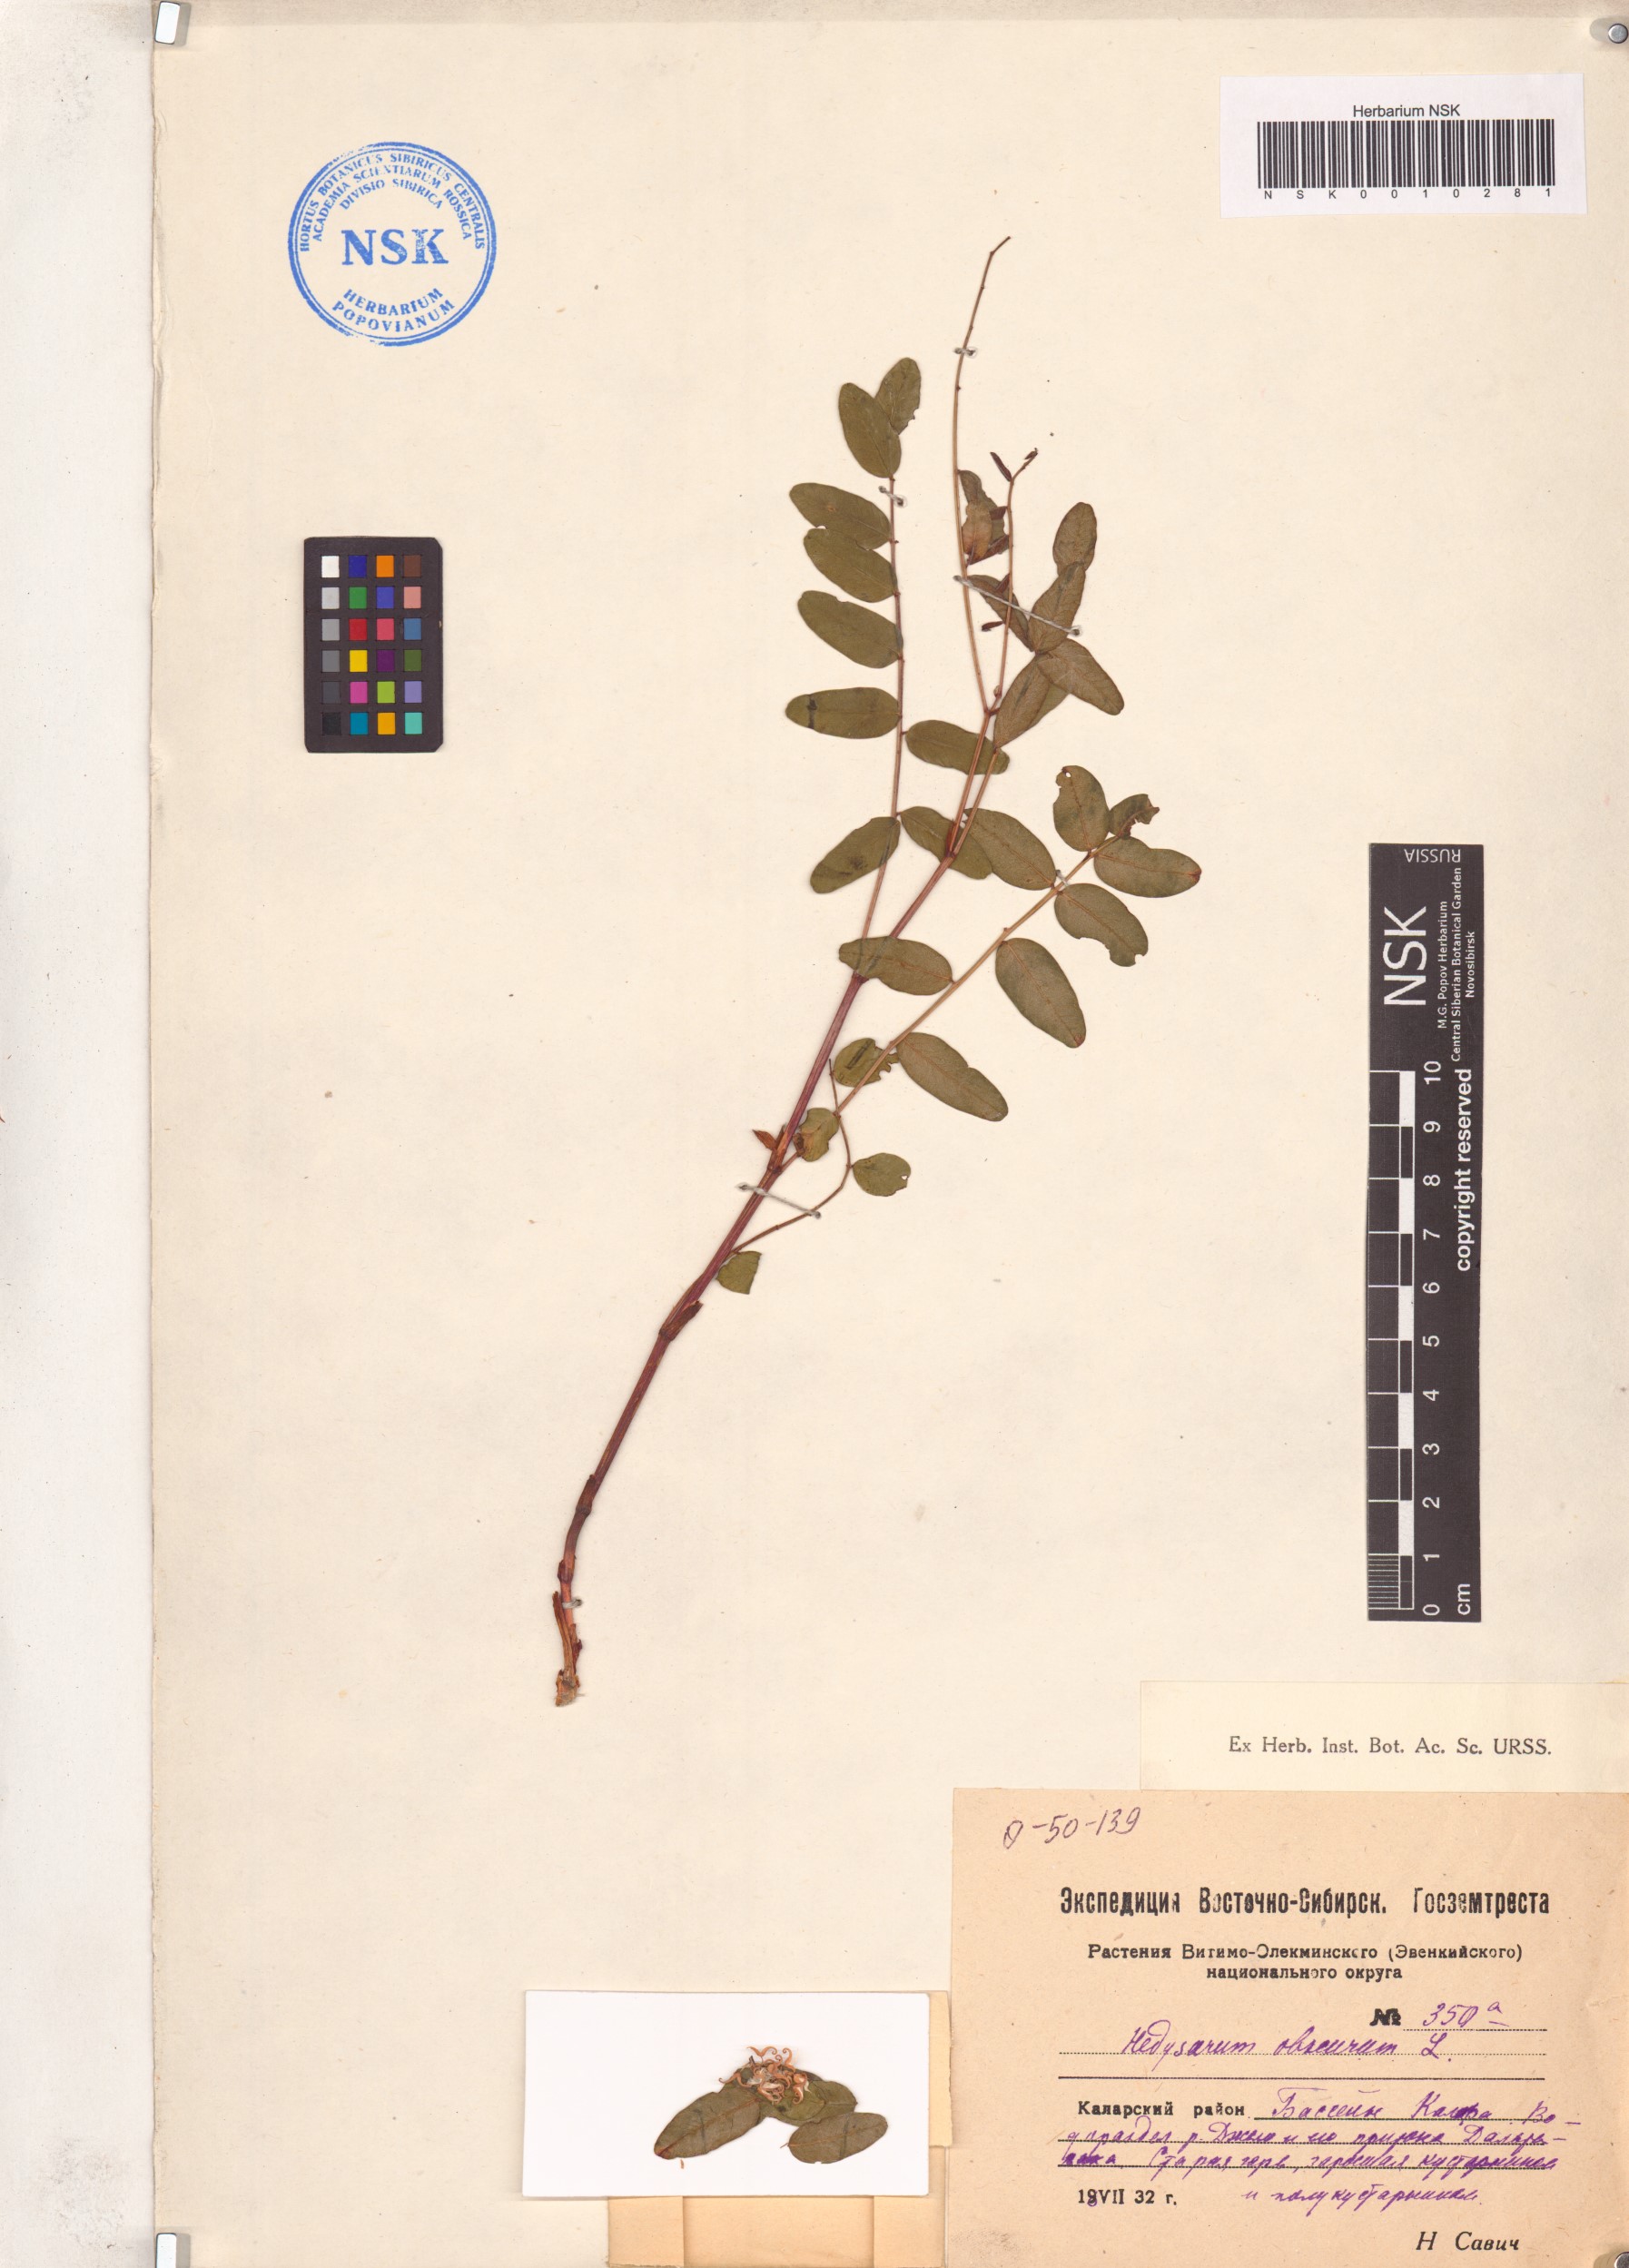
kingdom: Plantae
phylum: Tracheophyta
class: Magnoliopsida
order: Fabales
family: Fabaceae
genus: Hedysarum
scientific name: Hedysarum hedysaroides
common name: Alpine french-honeysuckle
